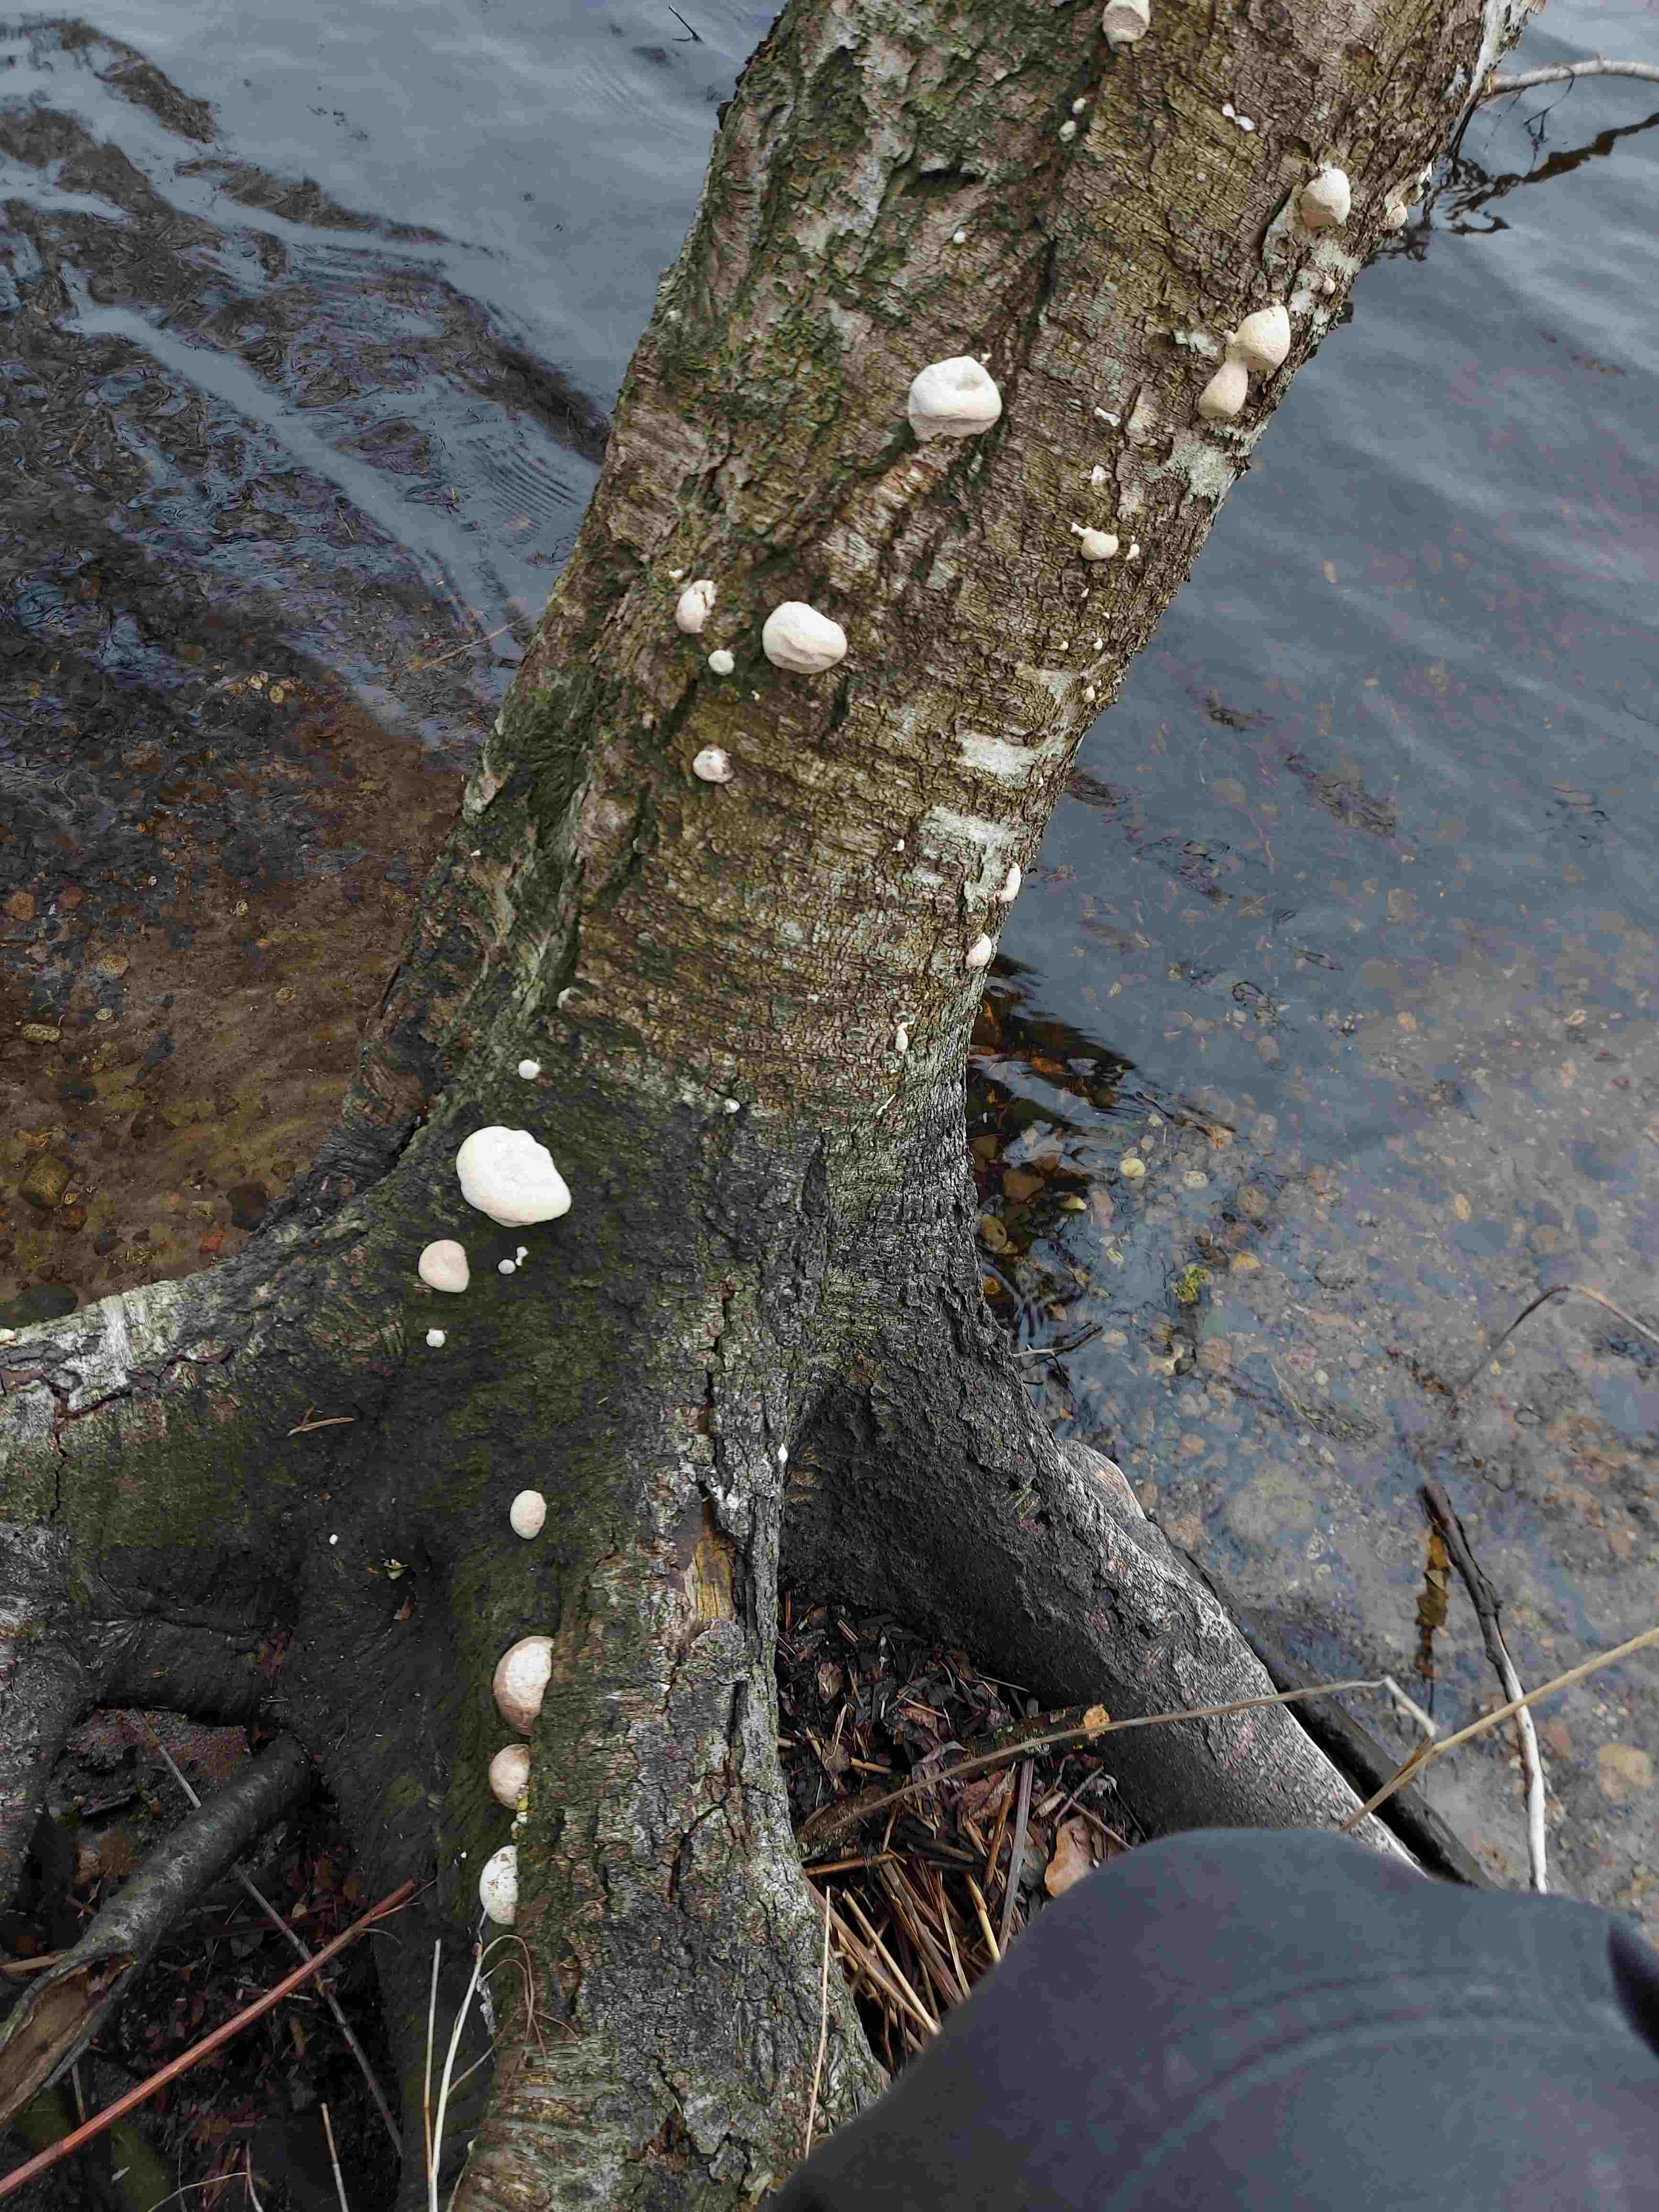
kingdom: Fungi
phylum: Basidiomycota
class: Agaricomycetes
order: Polyporales
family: Polyporaceae
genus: Trametes
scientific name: Trametes gibbosa
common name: puklet læderporesvamp
